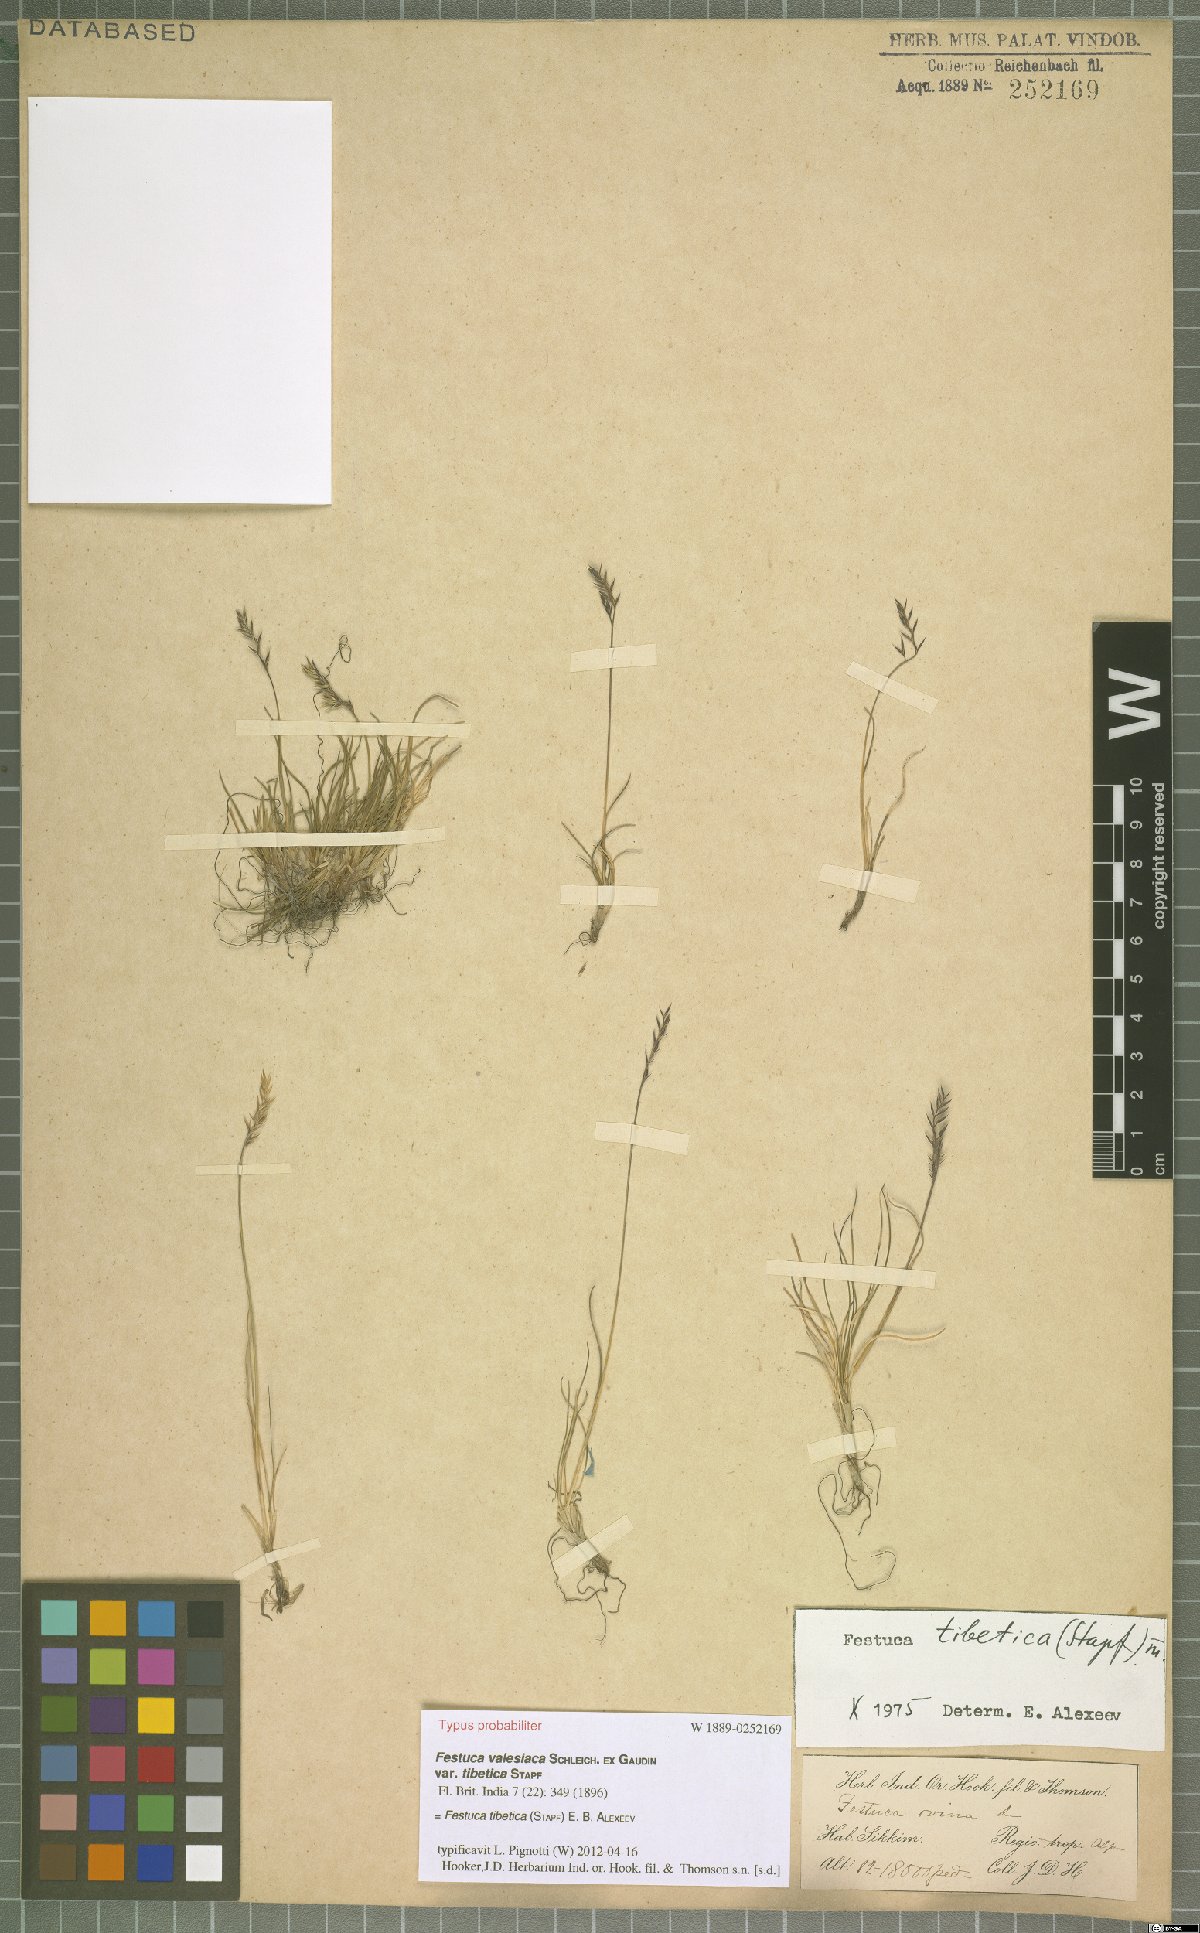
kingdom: Plantae
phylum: Tracheophyta
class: Liliopsida
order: Poales
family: Poaceae
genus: Festuca
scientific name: Festuca tibetica
